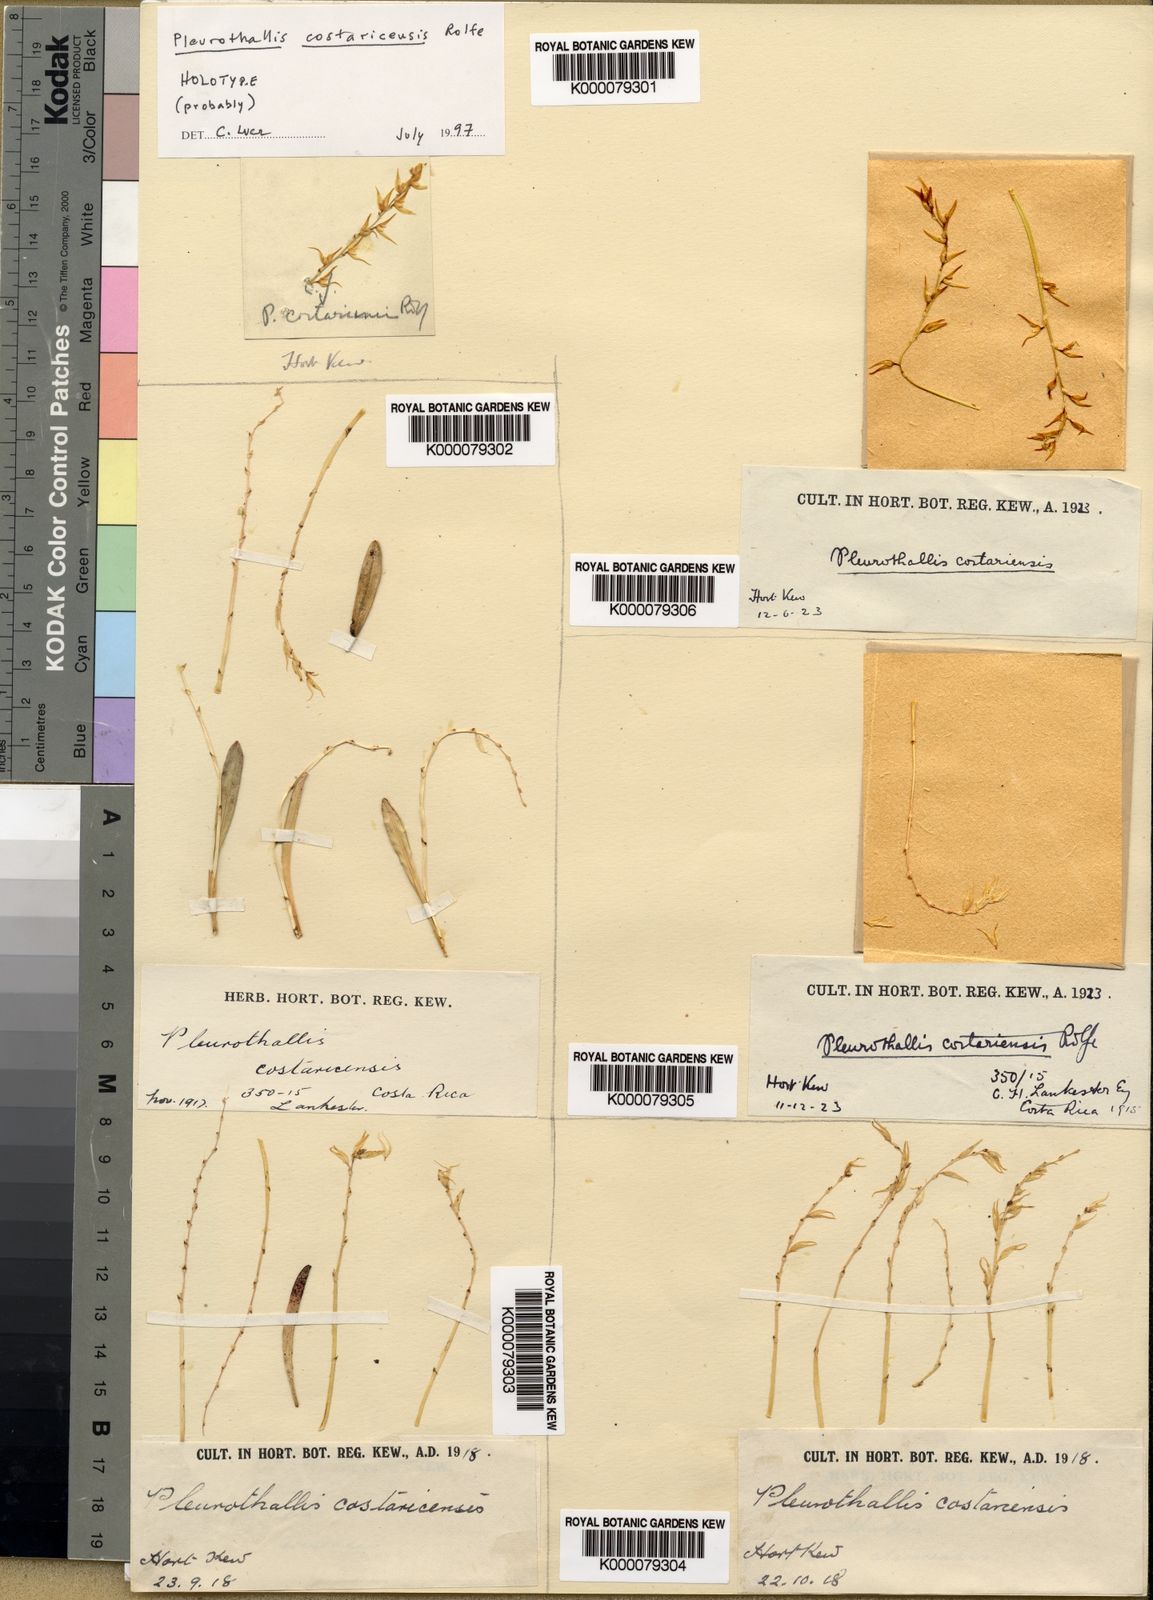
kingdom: Plantae
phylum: Tracheophyta
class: Liliopsida
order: Asparagales
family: Orchidaceae
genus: Specklinia
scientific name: Specklinia costaricensis
